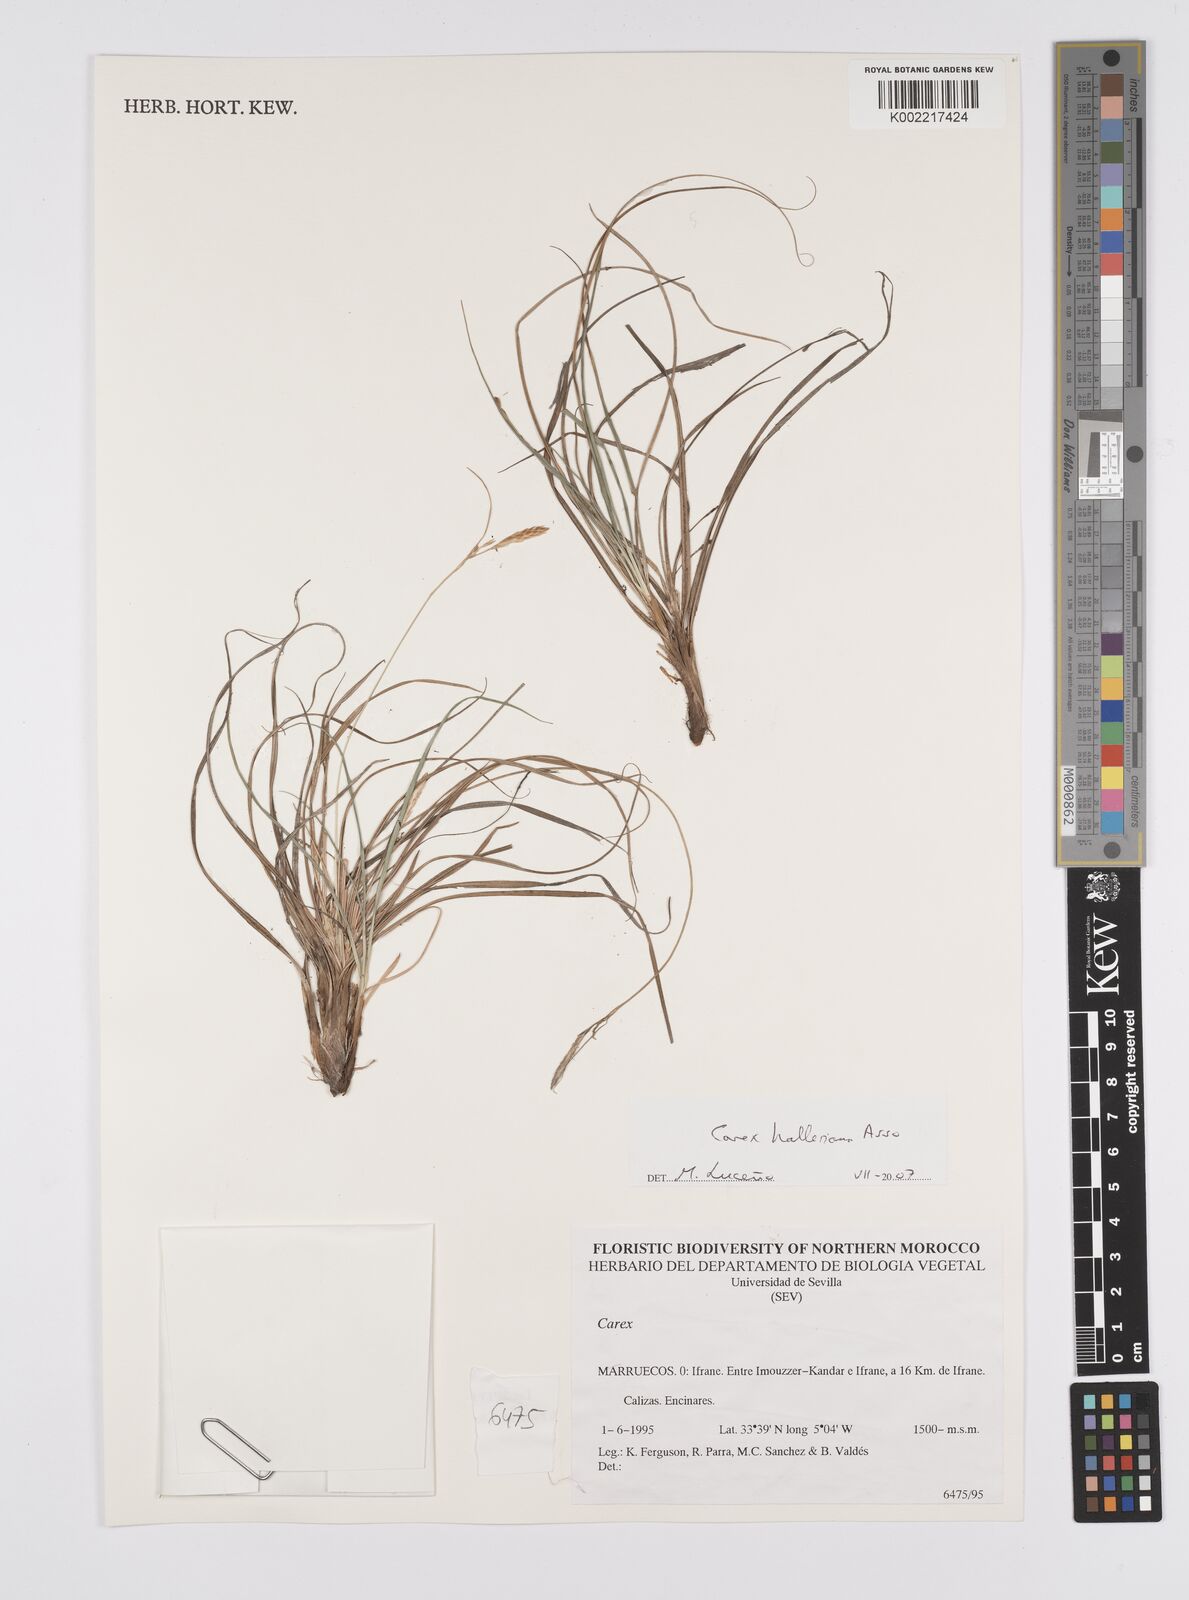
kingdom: Plantae
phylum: Tracheophyta
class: Liliopsida
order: Poales
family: Cyperaceae
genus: Carex
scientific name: Carex halleriana
